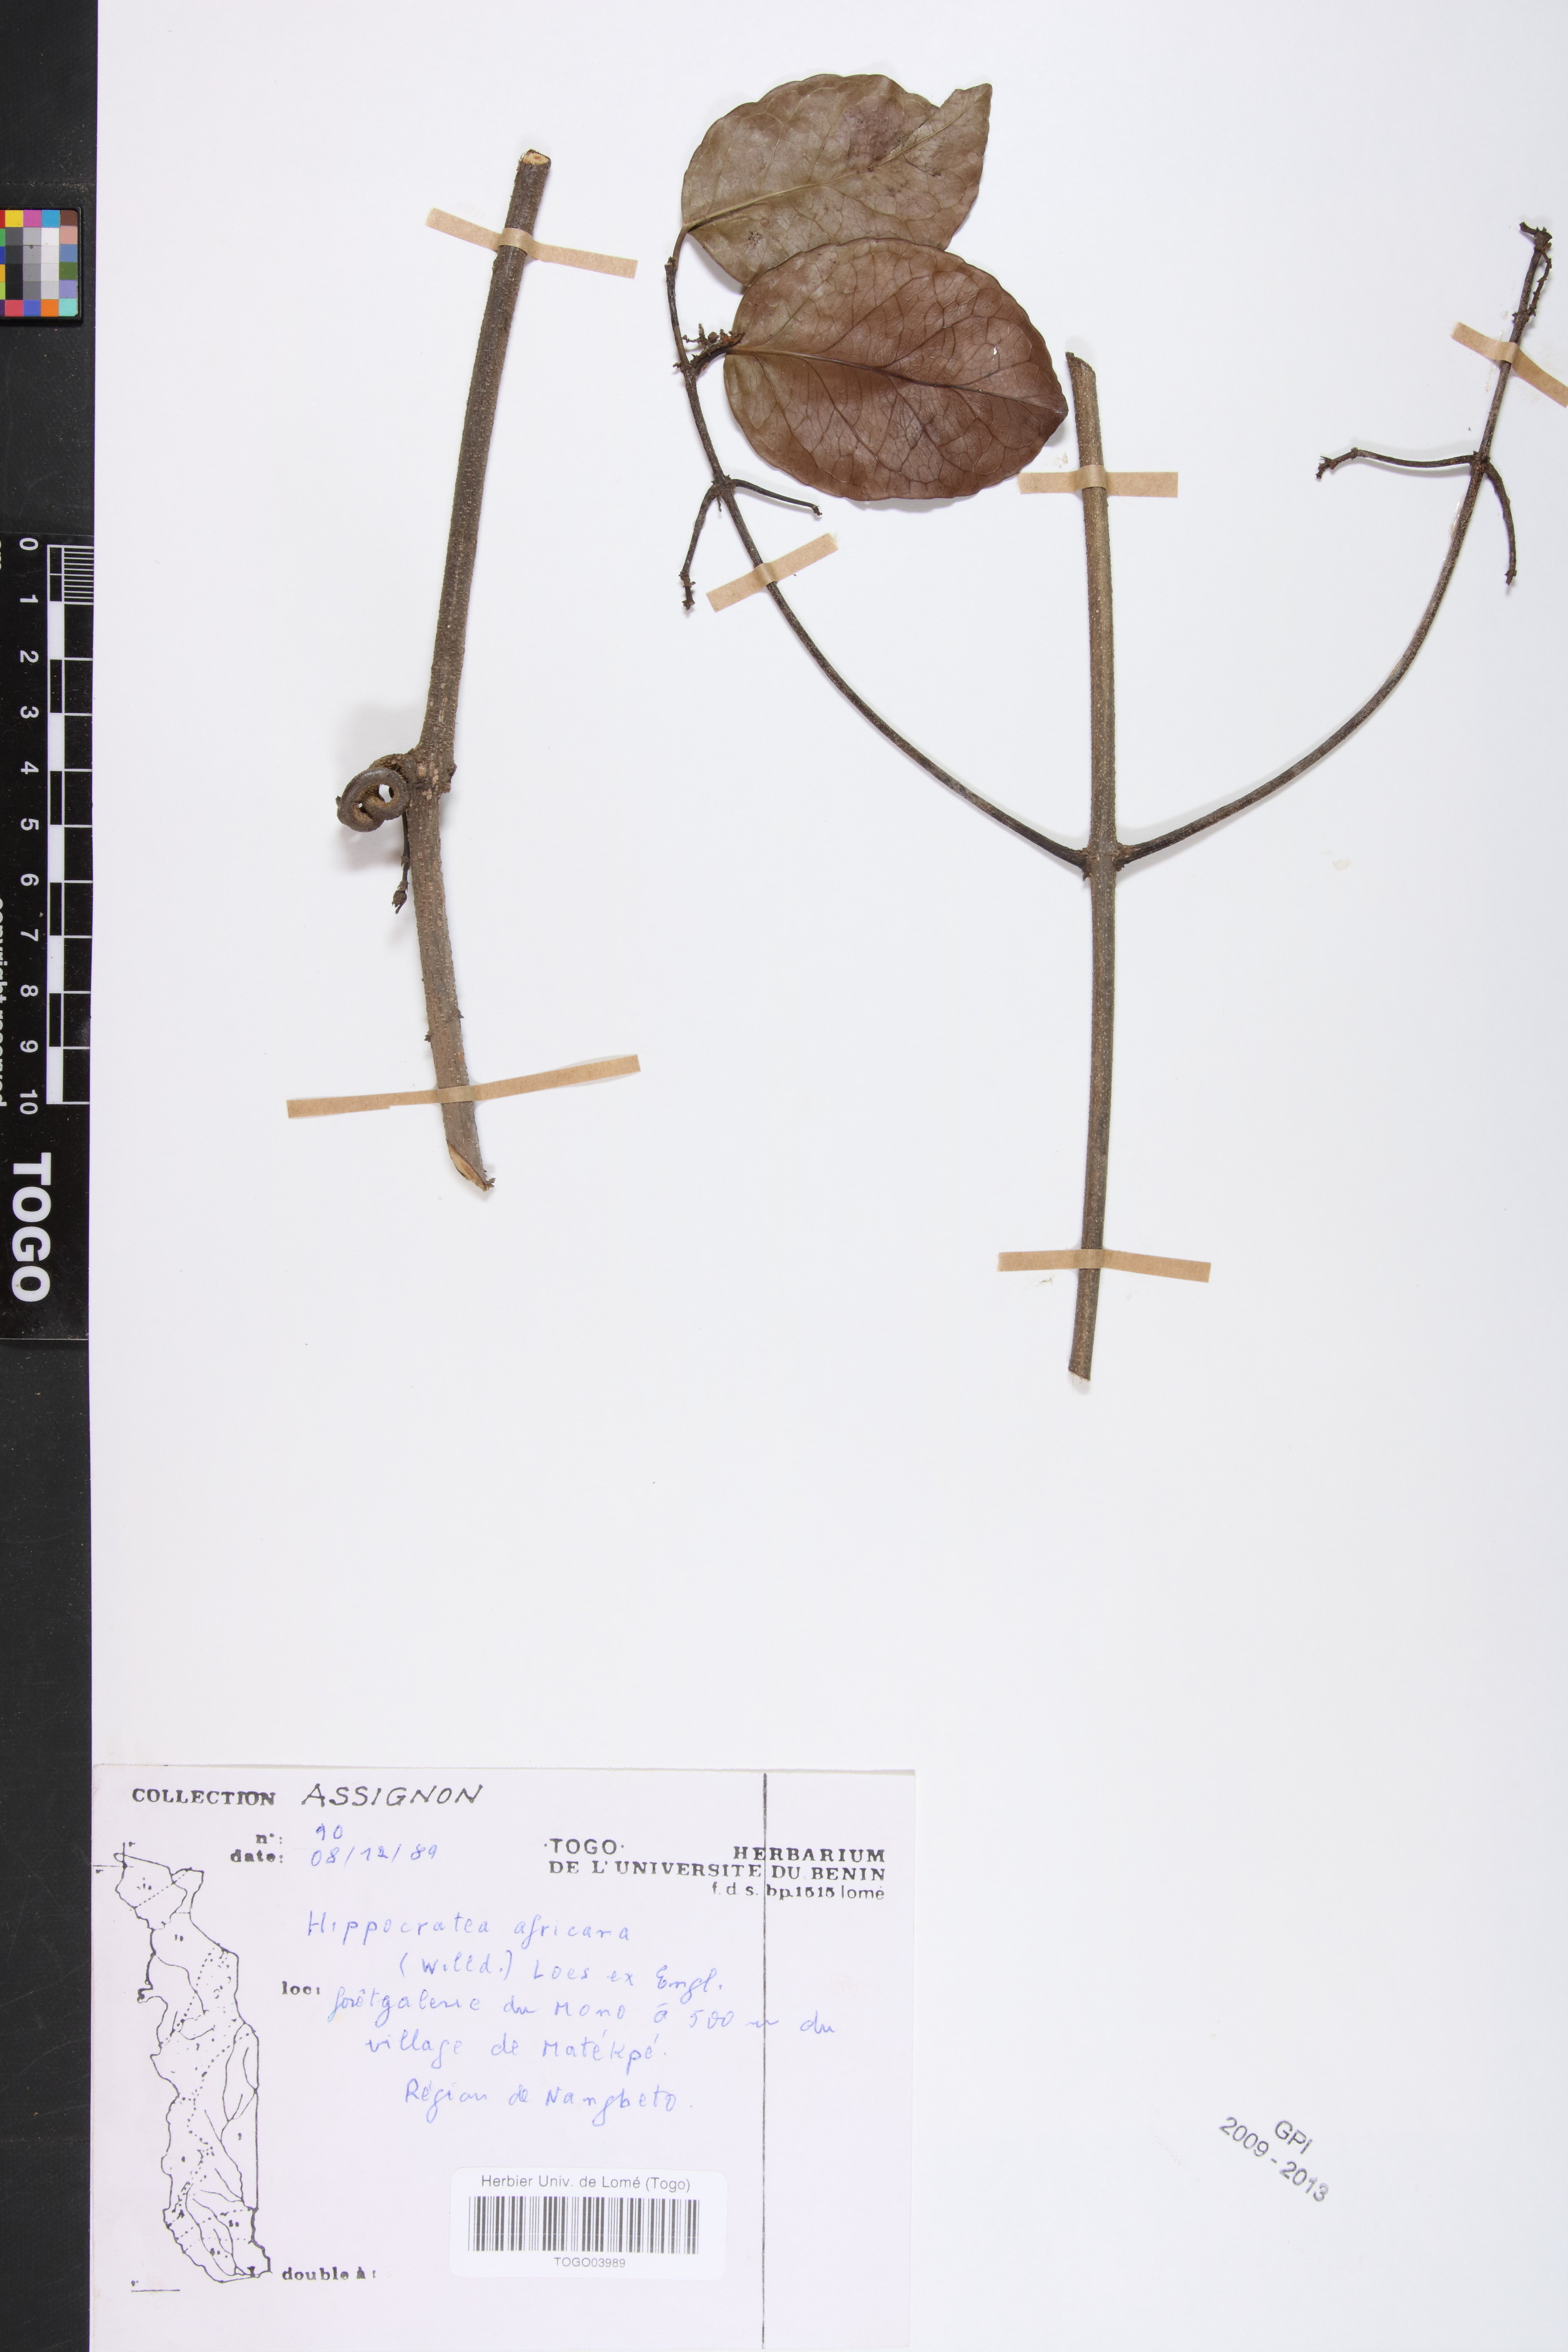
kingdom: Plantae
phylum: Tracheophyta
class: Magnoliopsida
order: Celastrales
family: Celastraceae
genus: Loeseneriella
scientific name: Loeseneriella africana
